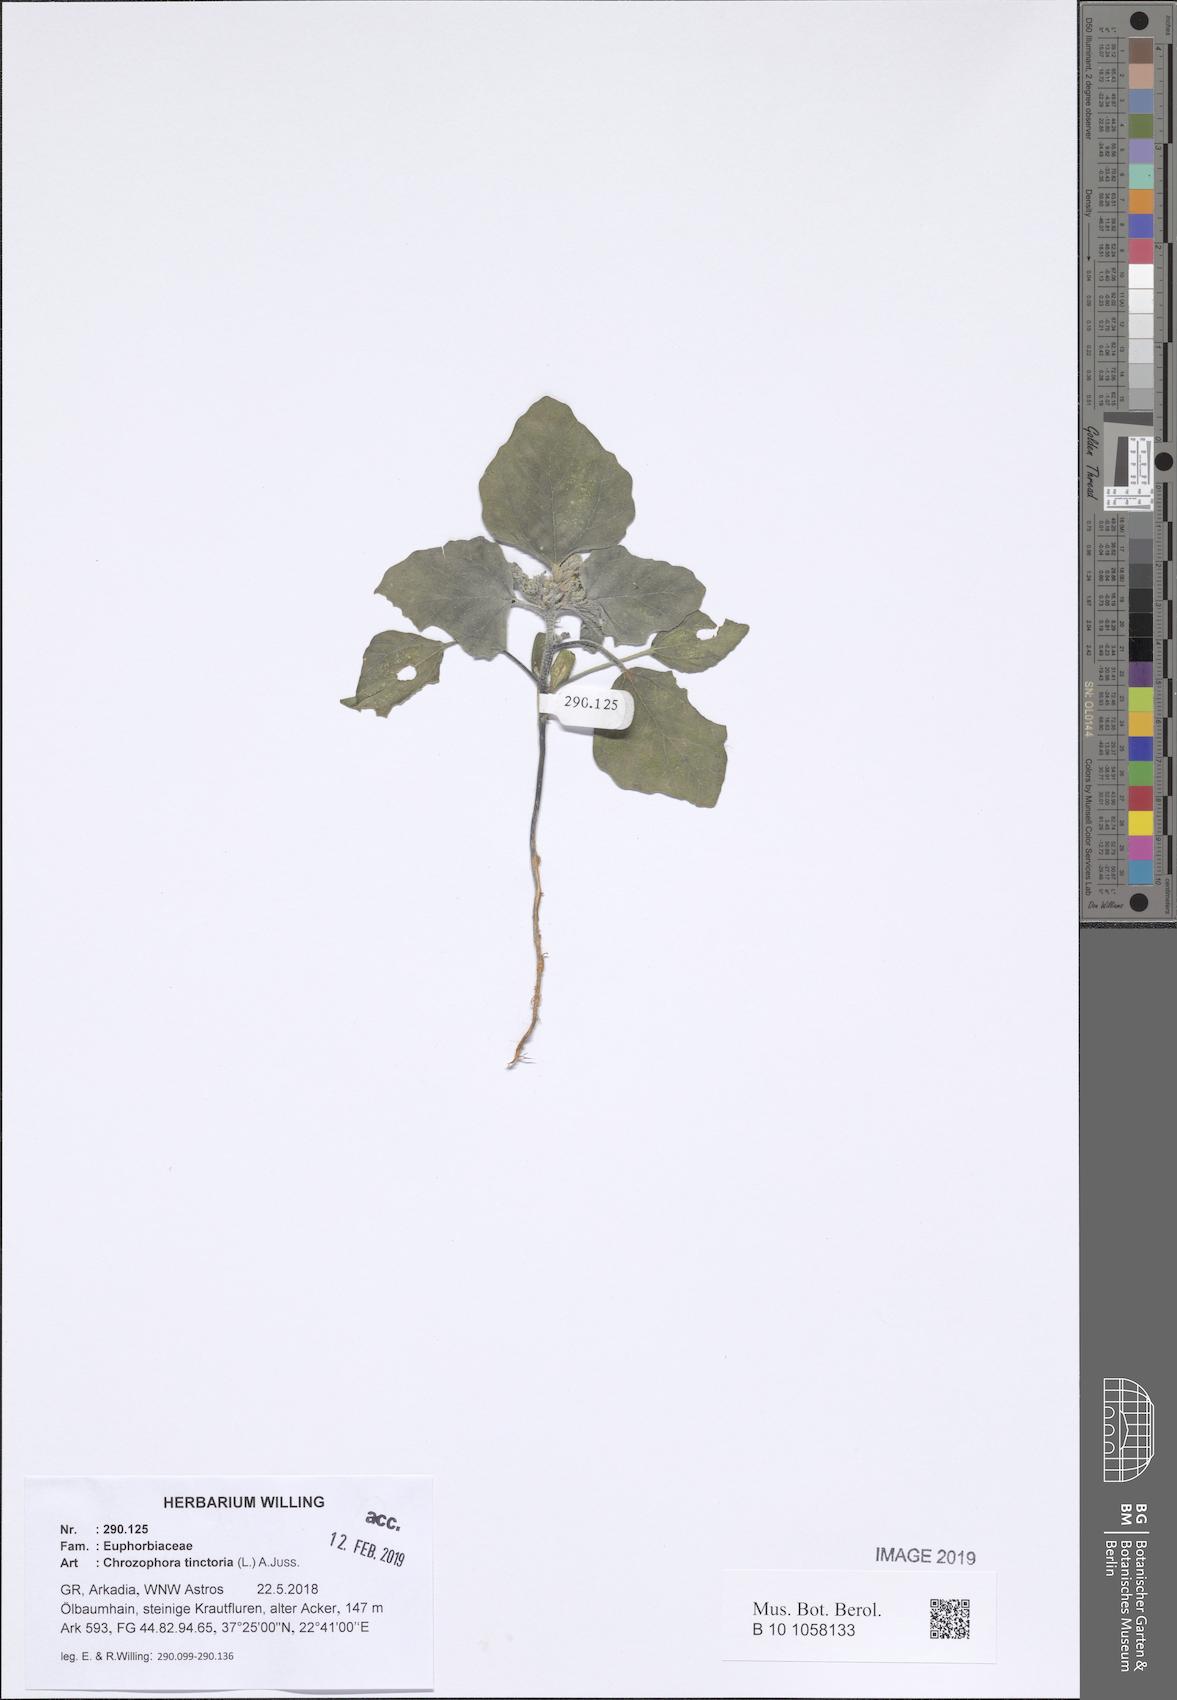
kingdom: Plantae
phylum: Tracheophyta
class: Magnoliopsida
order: Malpighiales
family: Euphorbiaceae
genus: Chrozophora
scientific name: Chrozophora tinctoria
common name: Dyer's litmus
